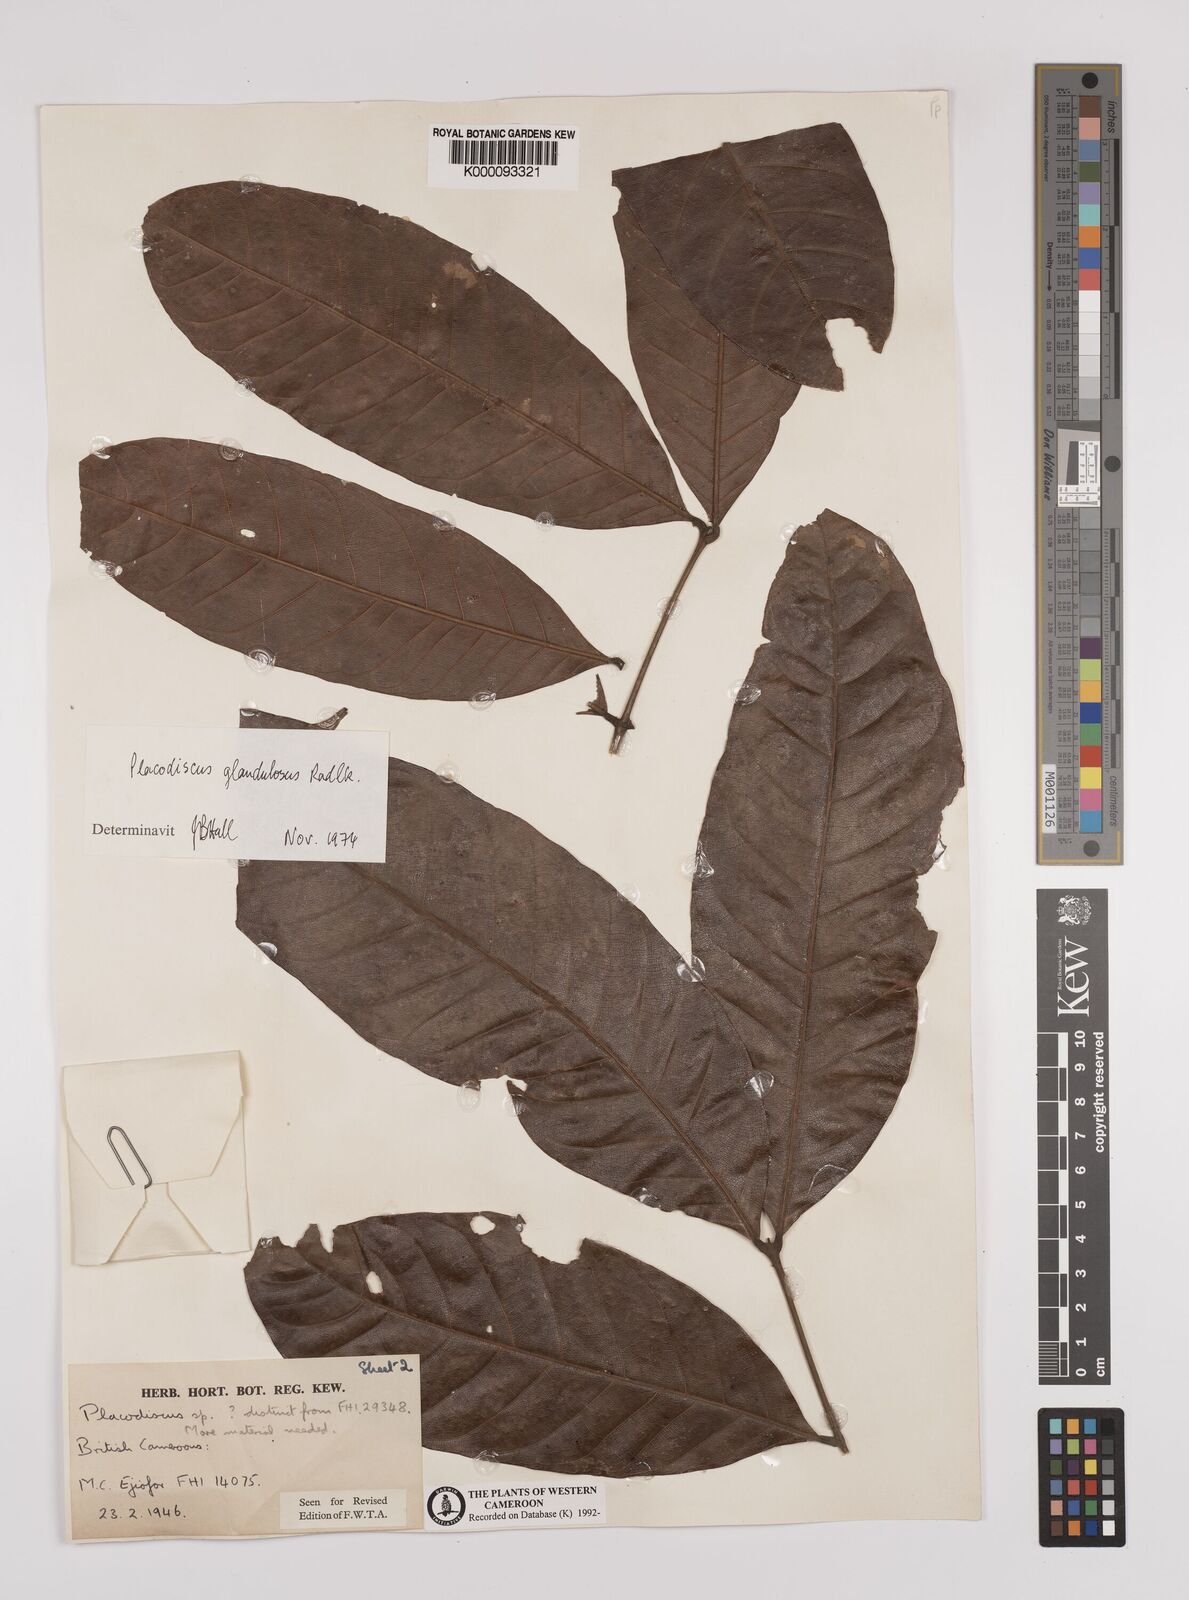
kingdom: Plantae
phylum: Tracheophyta
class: Magnoliopsida
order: Sapindales
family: Sapindaceae
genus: Placodiscus
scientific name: Placodiscus glandulosus
